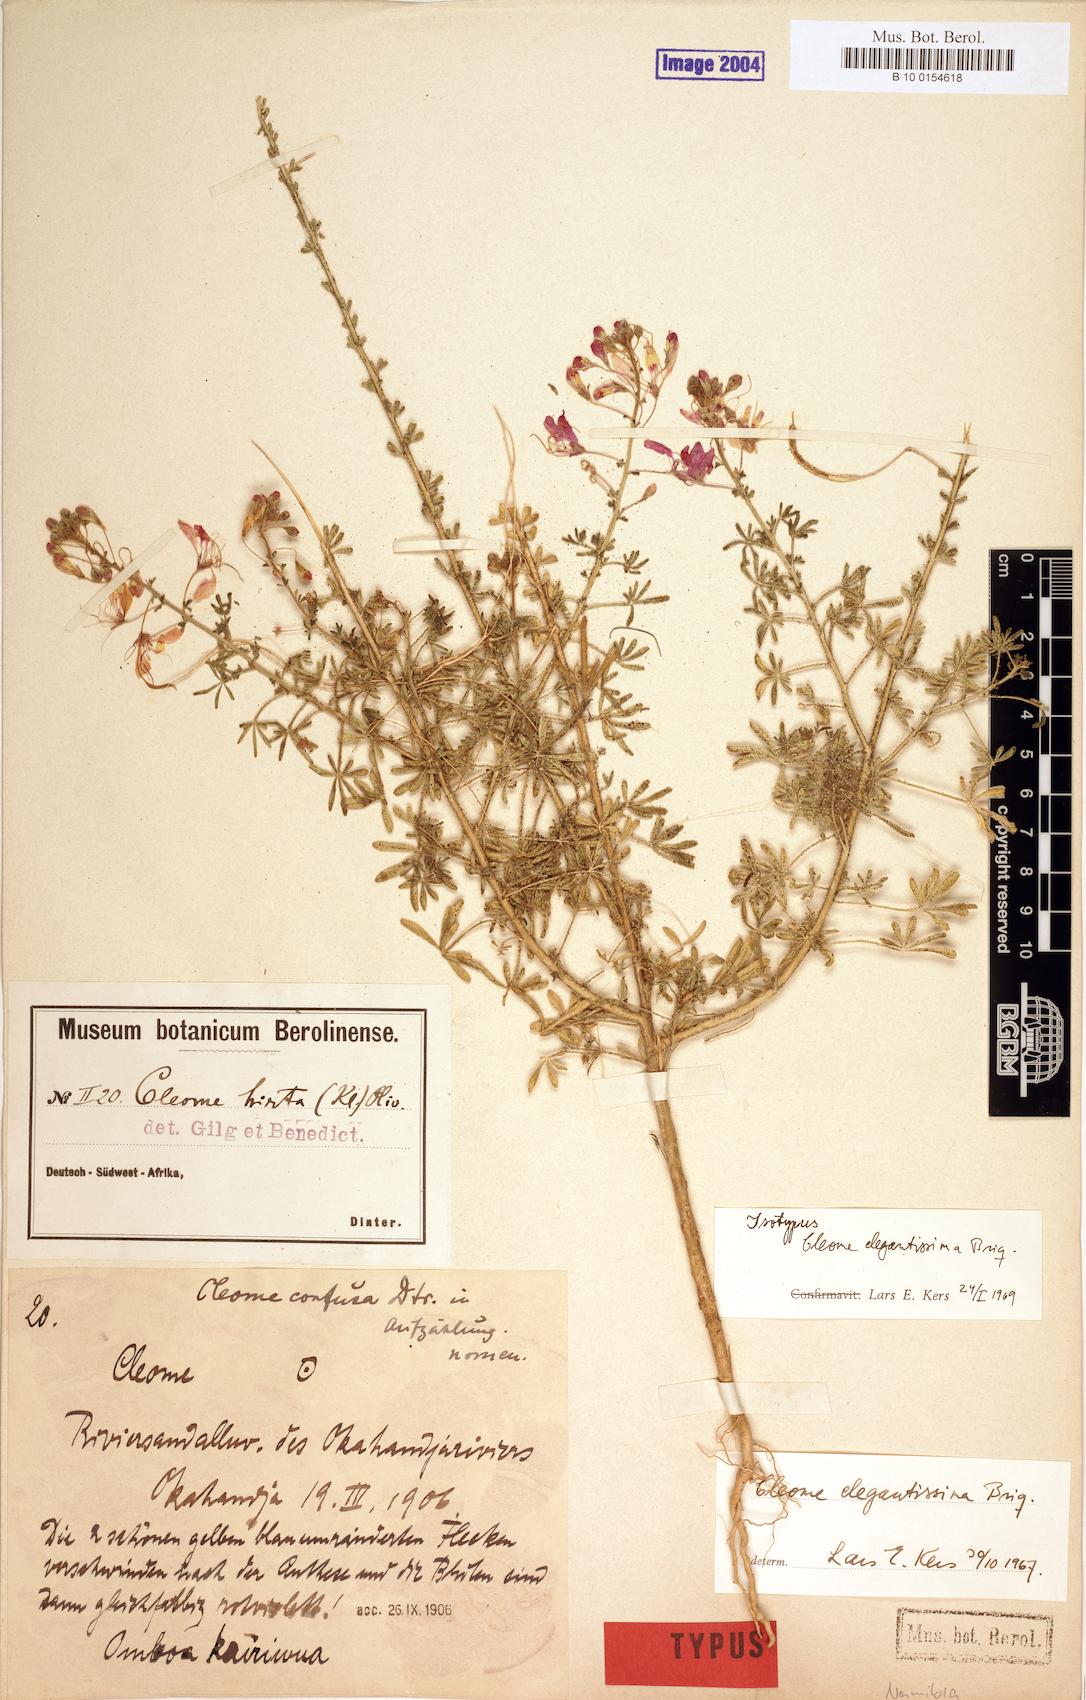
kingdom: Plantae
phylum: Tracheophyta
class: Magnoliopsida
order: Brassicales
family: Cleomaceae
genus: Sieruela
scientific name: Sieruela elegantissima
